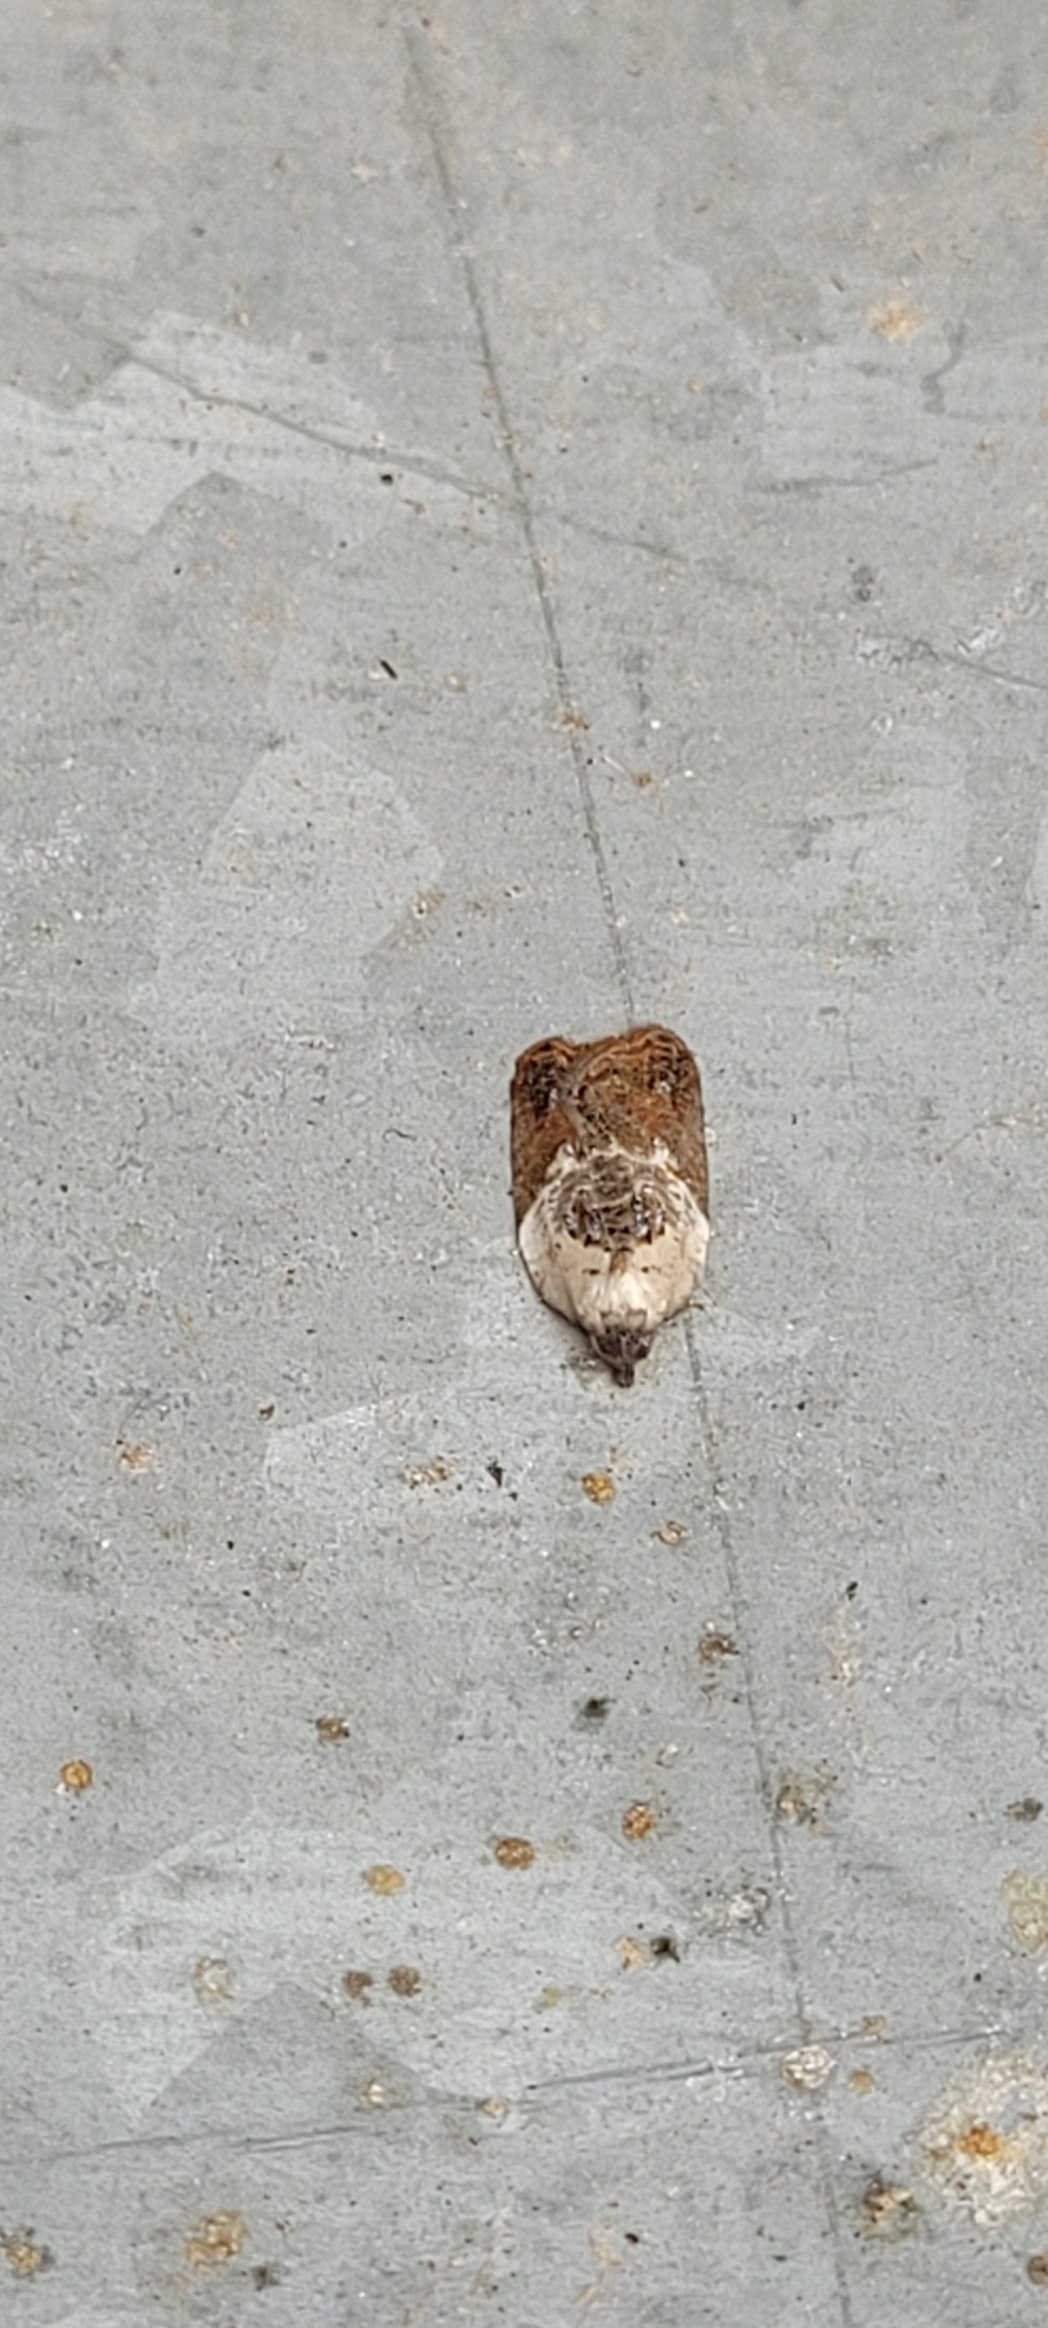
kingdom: Animalia
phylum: Arthropoda
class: Insecta
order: Lepidoptera
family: Tortricidae
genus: Acleris
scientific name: Acleris variegana
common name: Hvidbroget rosenvikler
